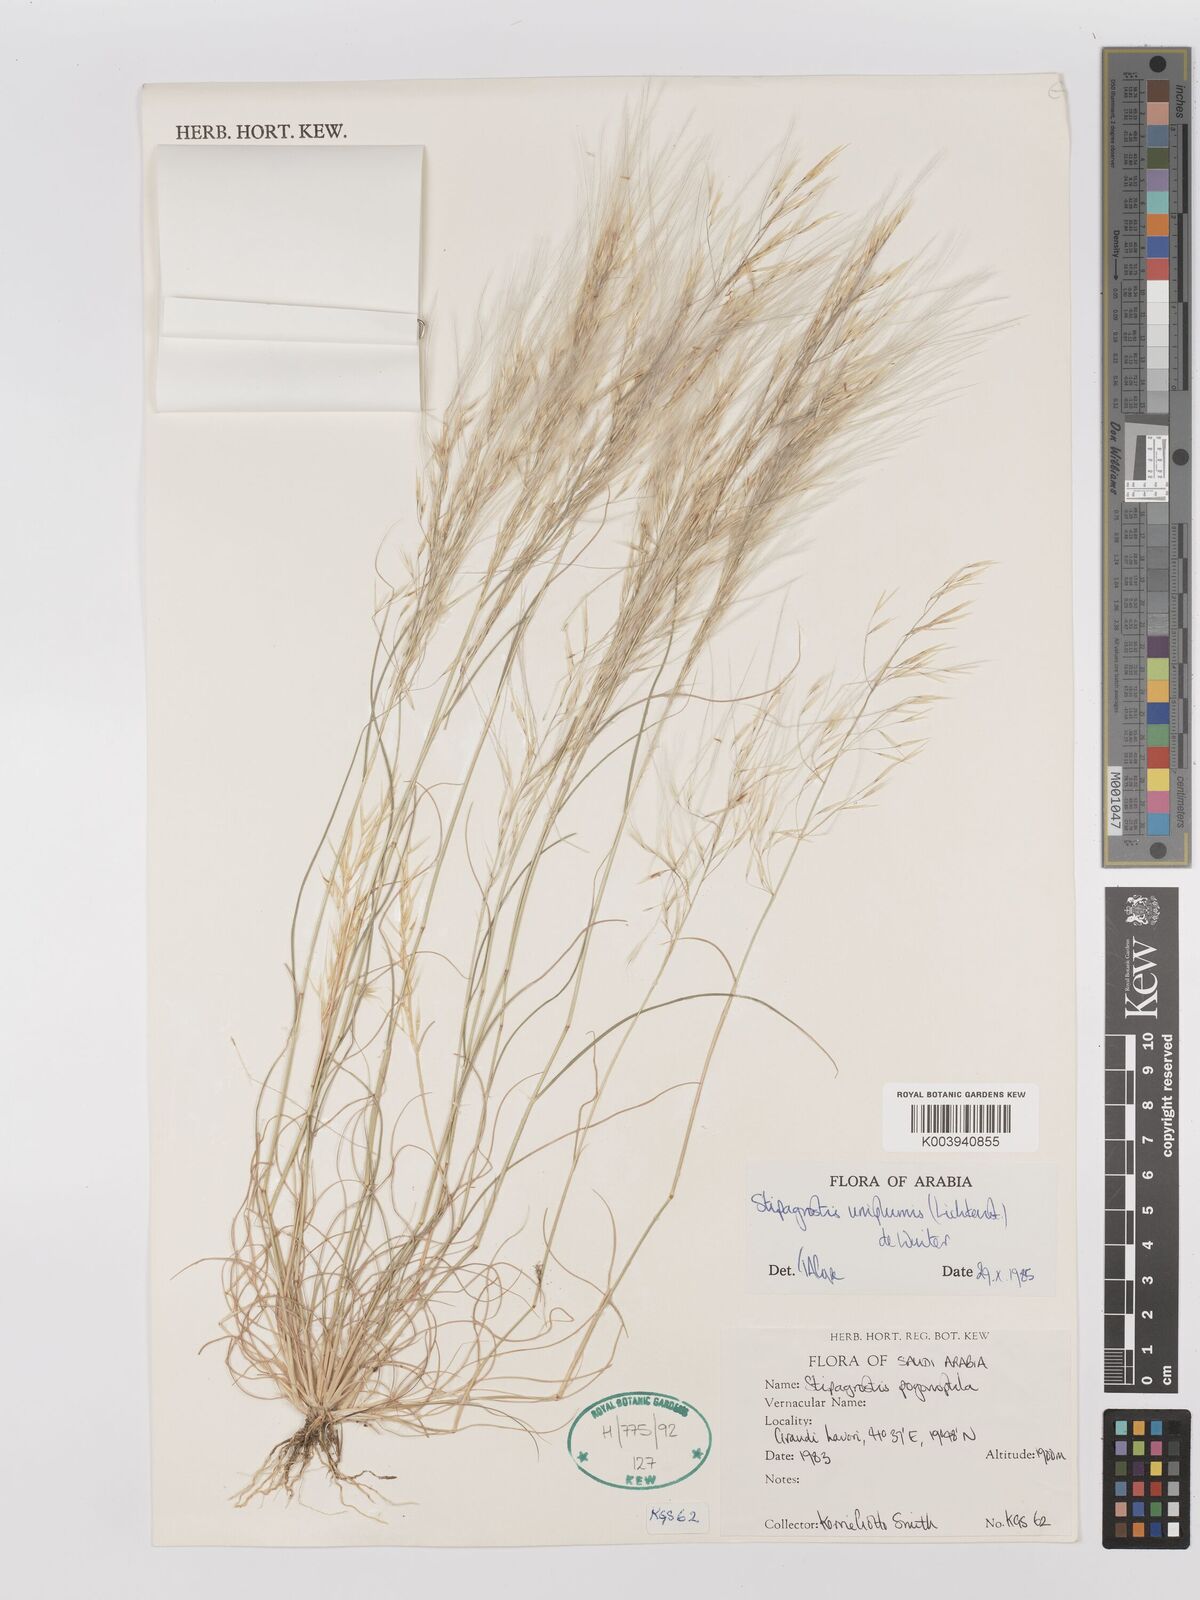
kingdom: Plantae
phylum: Tracheophyta
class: Liliopsida
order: Poales
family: Poaceae
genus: Stipagrostis
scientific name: Stipagrostis uniplumis
